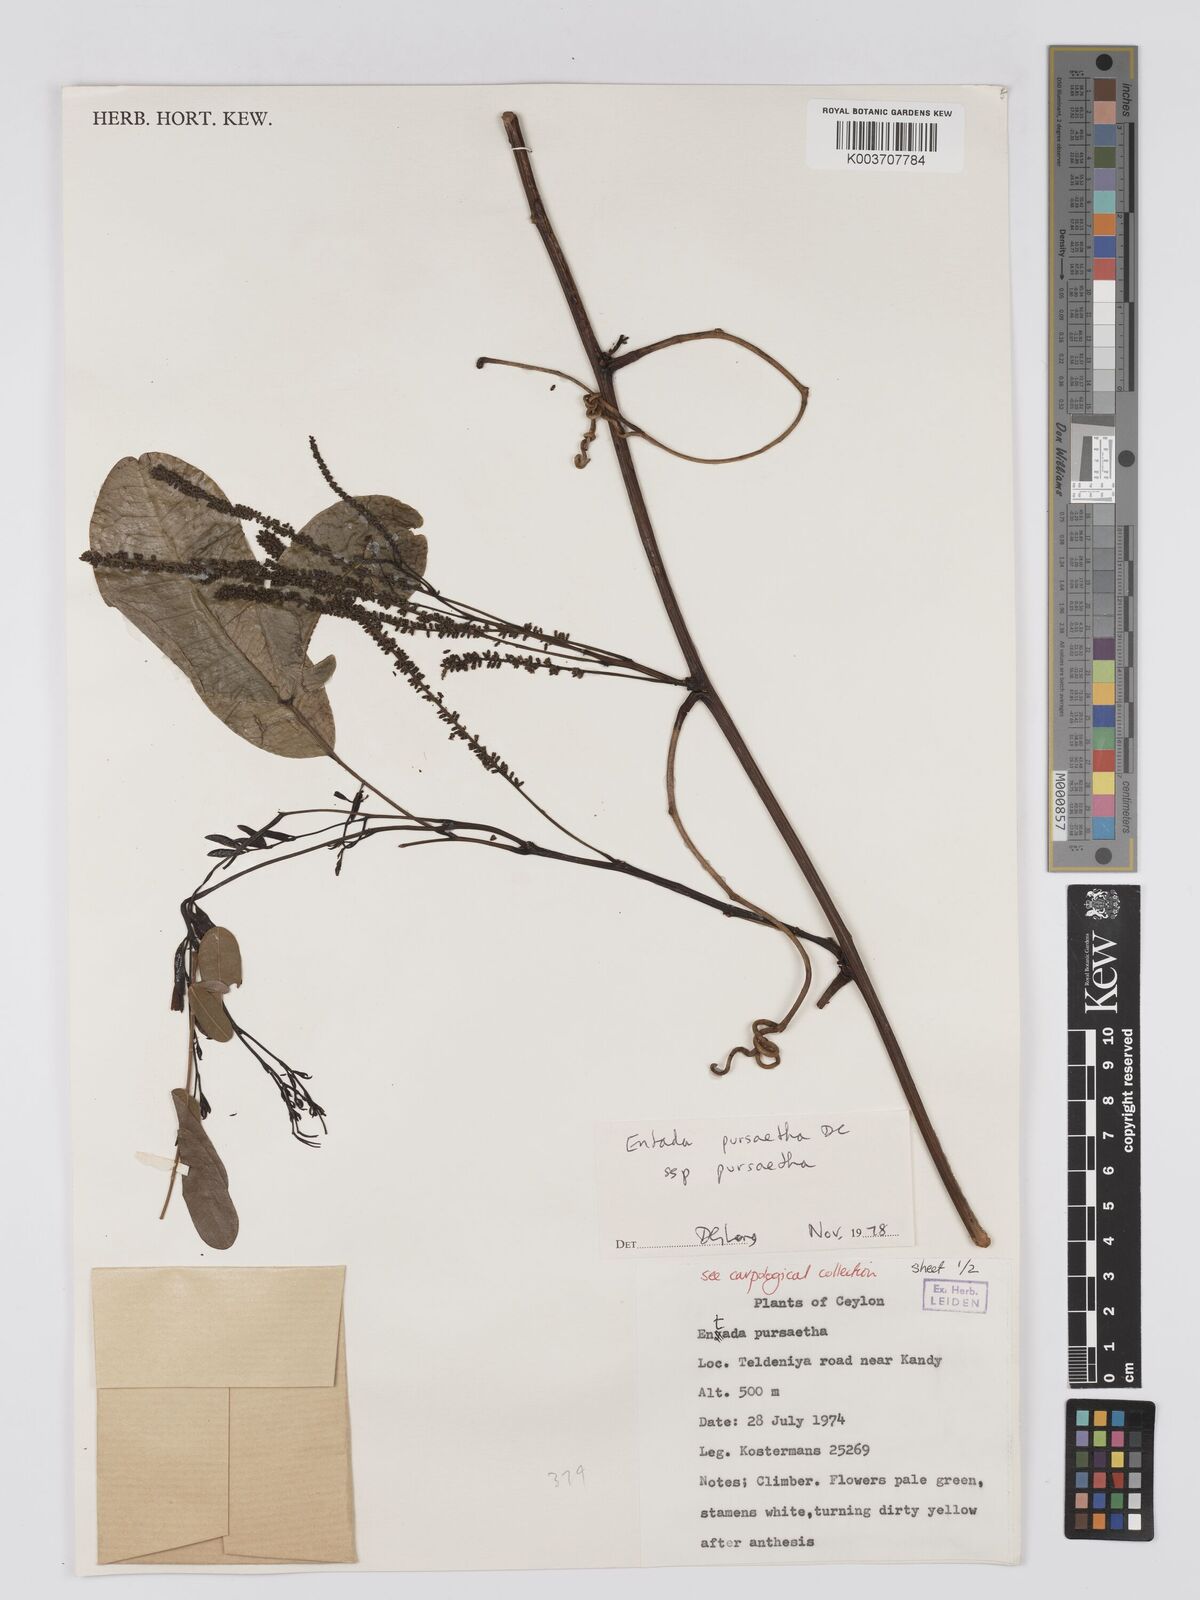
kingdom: Plantae
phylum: Tracheophyta
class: Magnoliopsida
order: Fabales
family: Fabaceae
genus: Entada
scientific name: Entada phaseoloides
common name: Matchbox-bean
